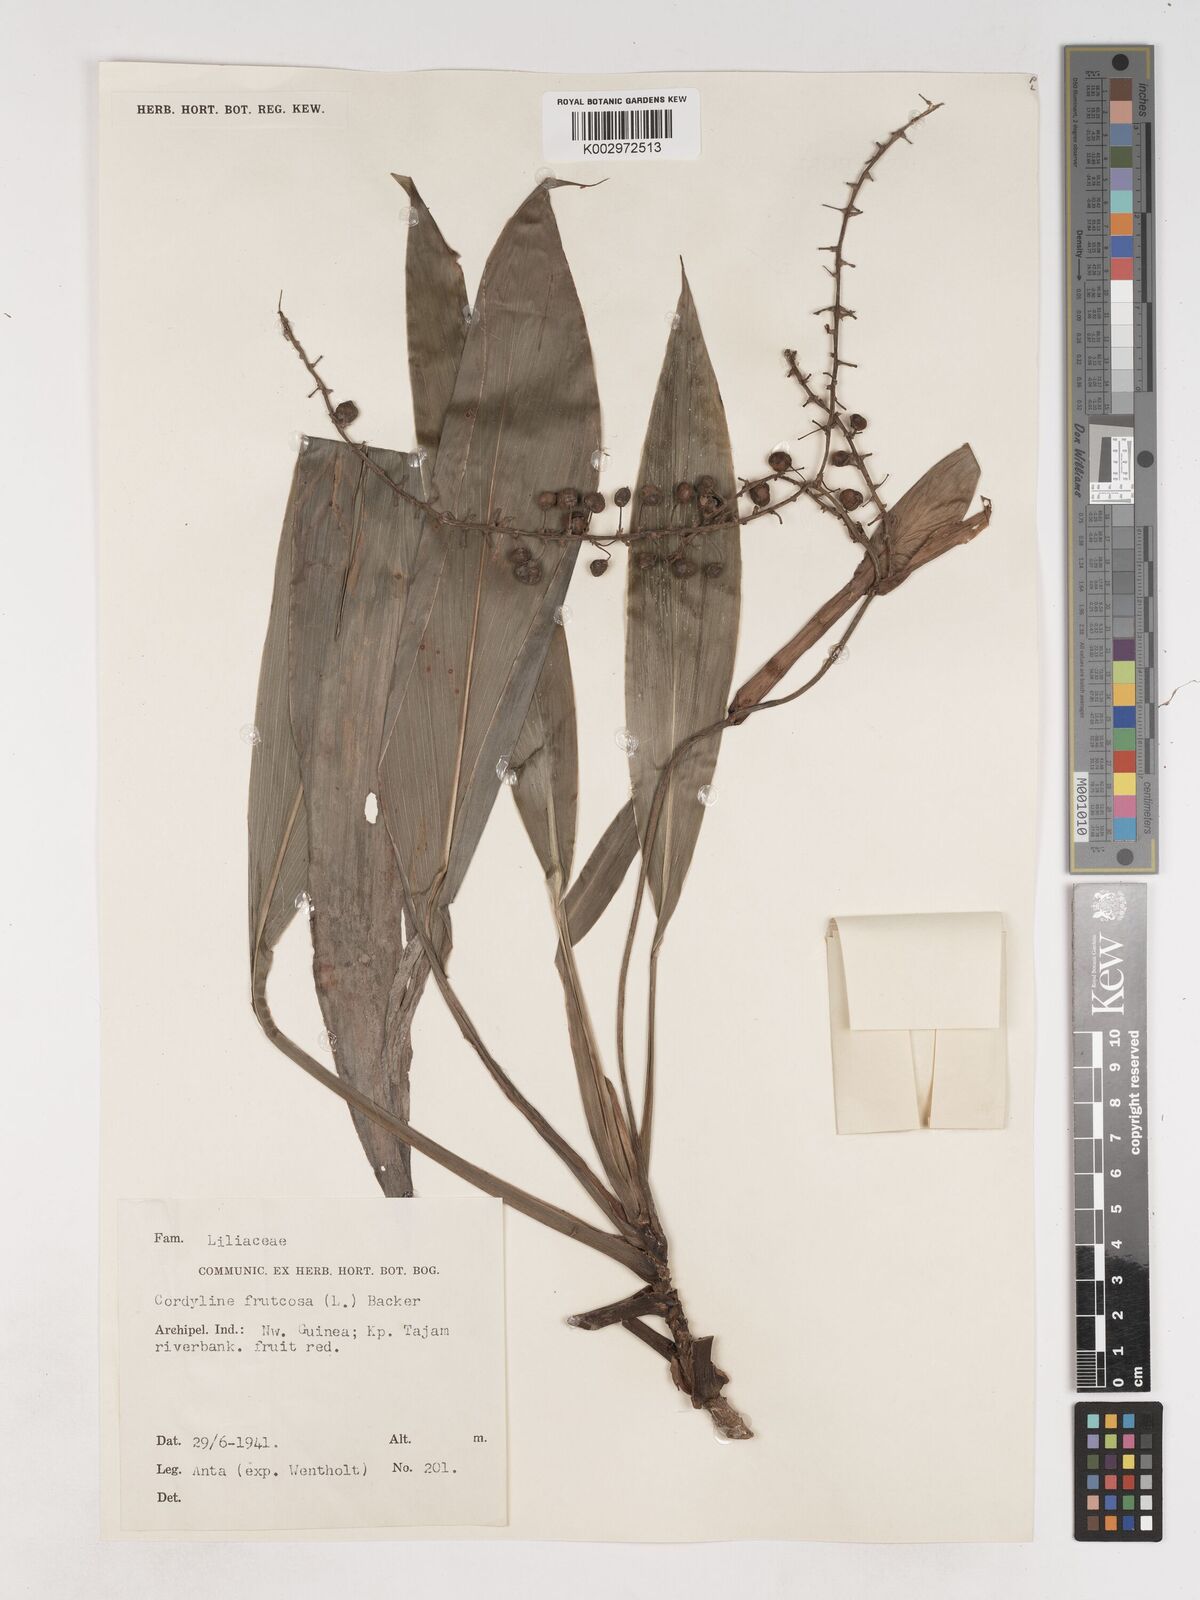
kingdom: Plantae
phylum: Tracheophyta
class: Liliopsida
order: Asparagales
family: Asparagaceae
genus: Cordyline
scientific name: Cordyline
